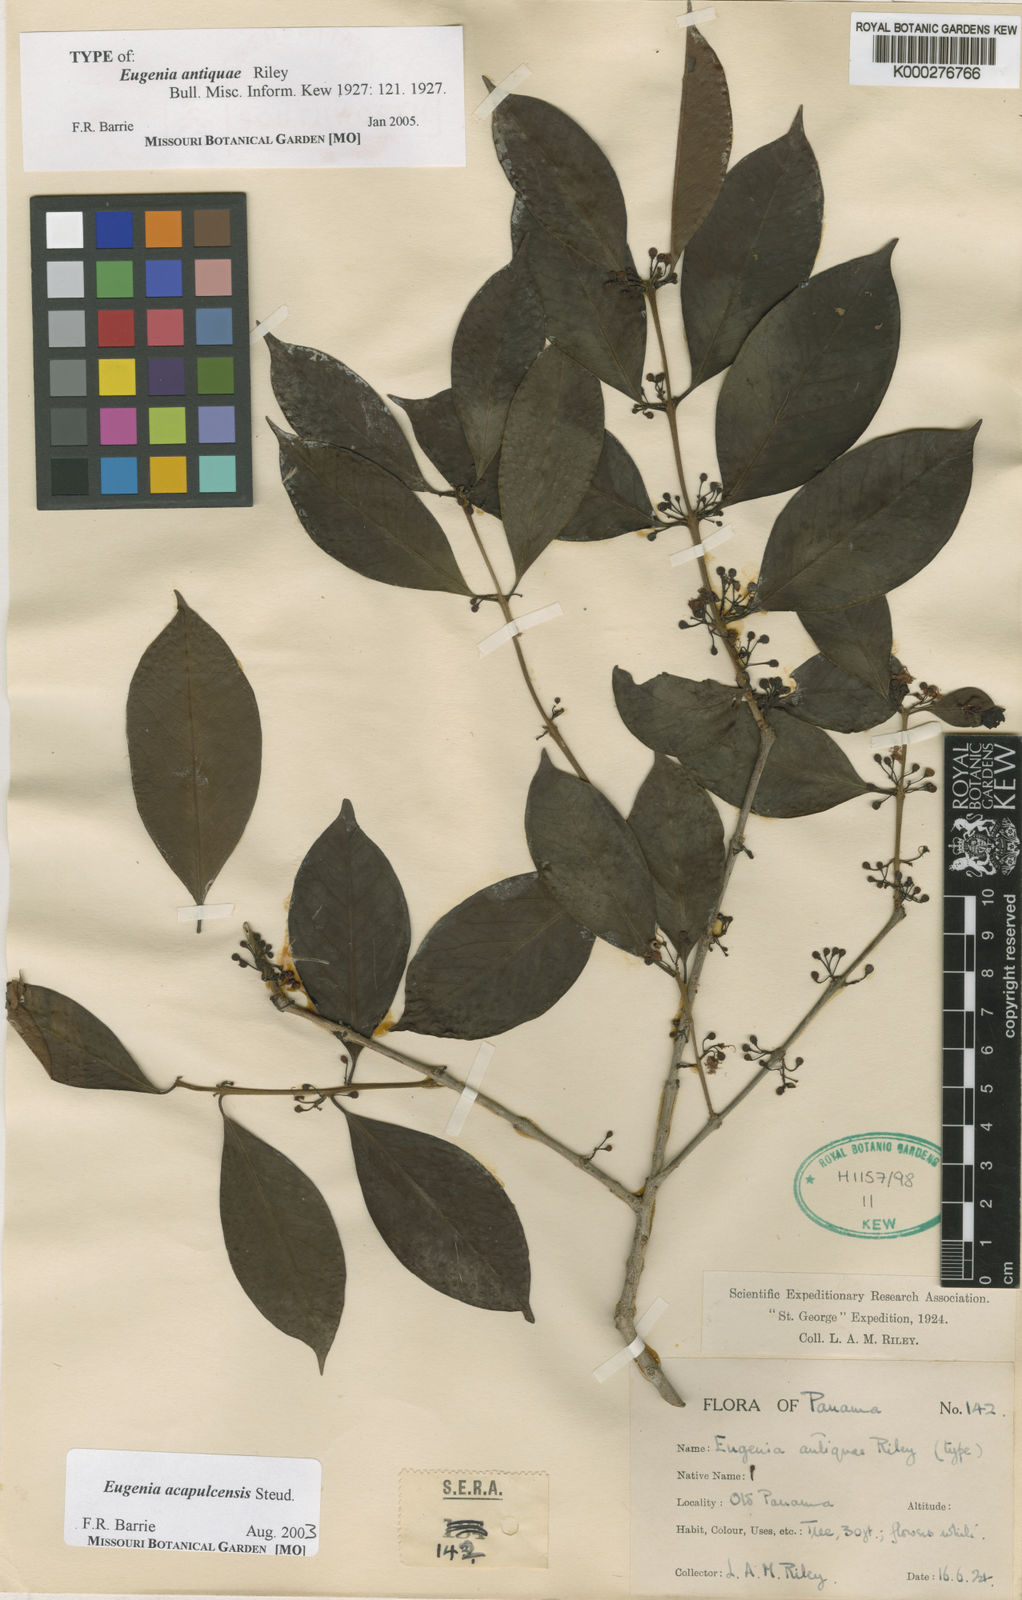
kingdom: Plantae
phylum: Tracheophyta
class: Magnoliopsida
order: Myrtales
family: Myrtaceae
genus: Eugenia
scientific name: Eugenia acapulcensis
